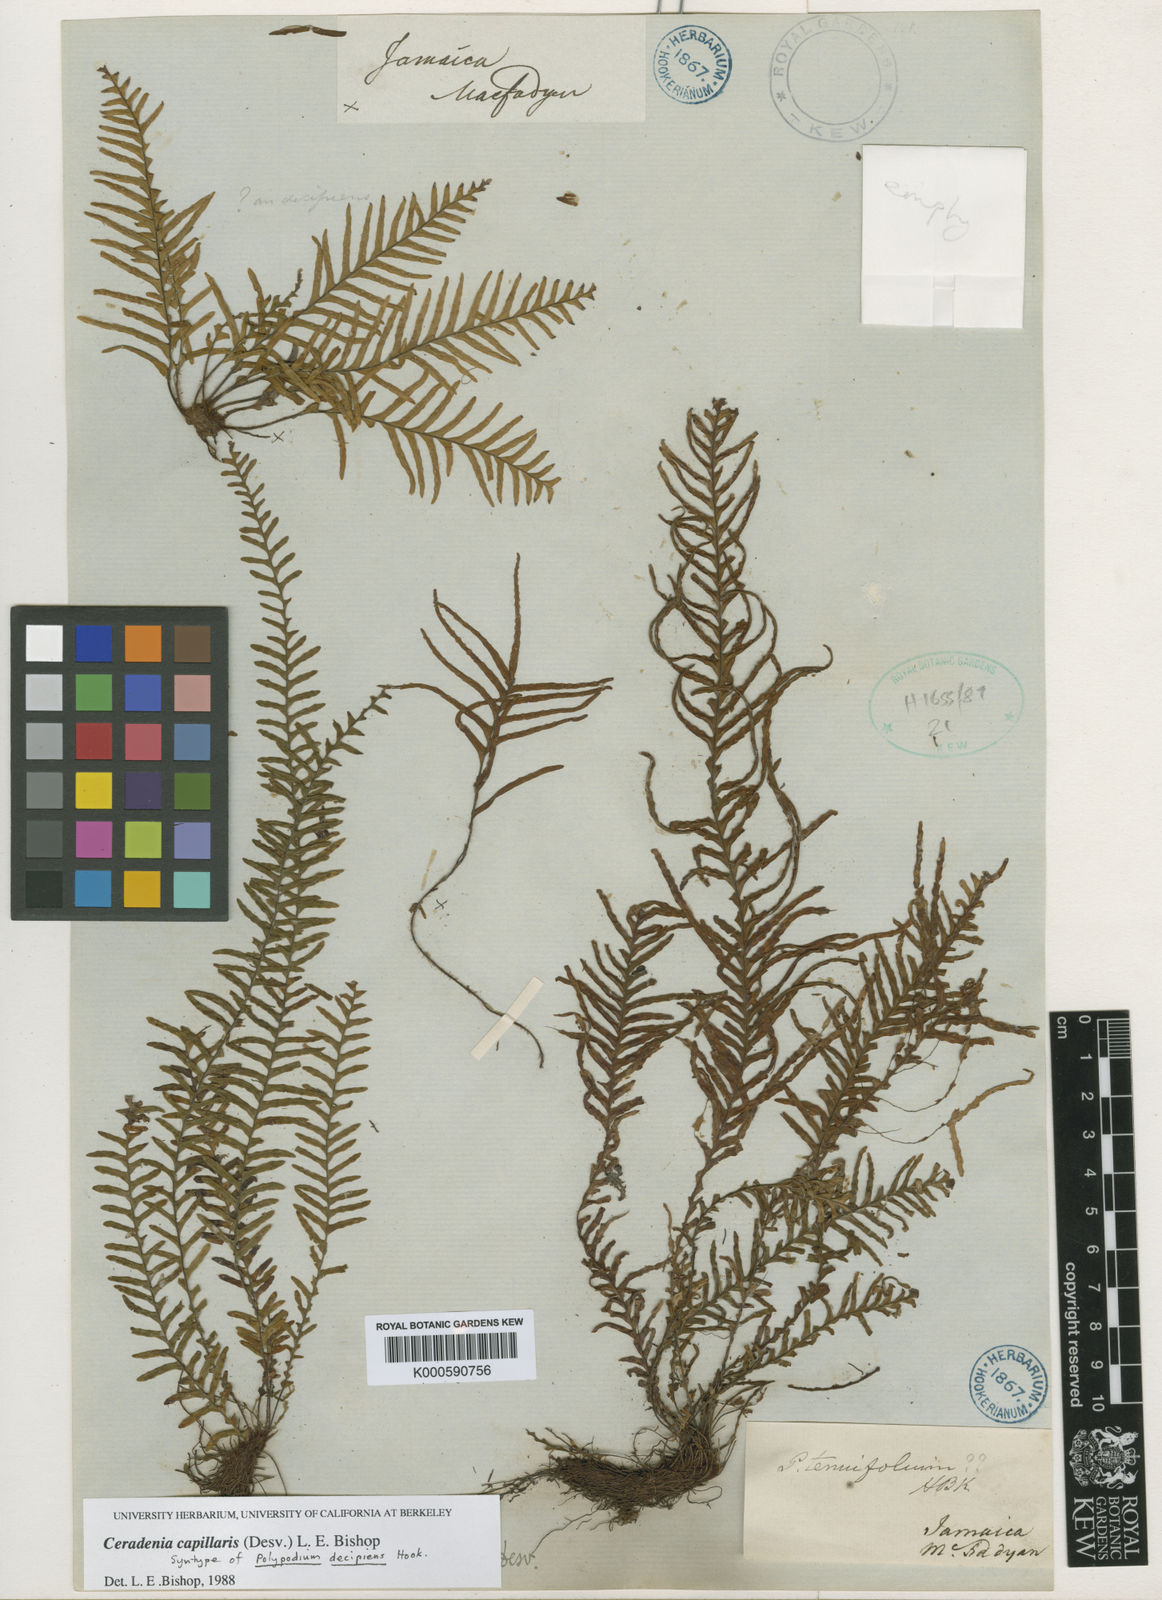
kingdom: Plantae
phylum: Tracheophyta
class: Polypodiopsida
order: Polypodiales
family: Polypodiaceae
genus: Ceradenia
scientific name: Ceradenia capillaris
